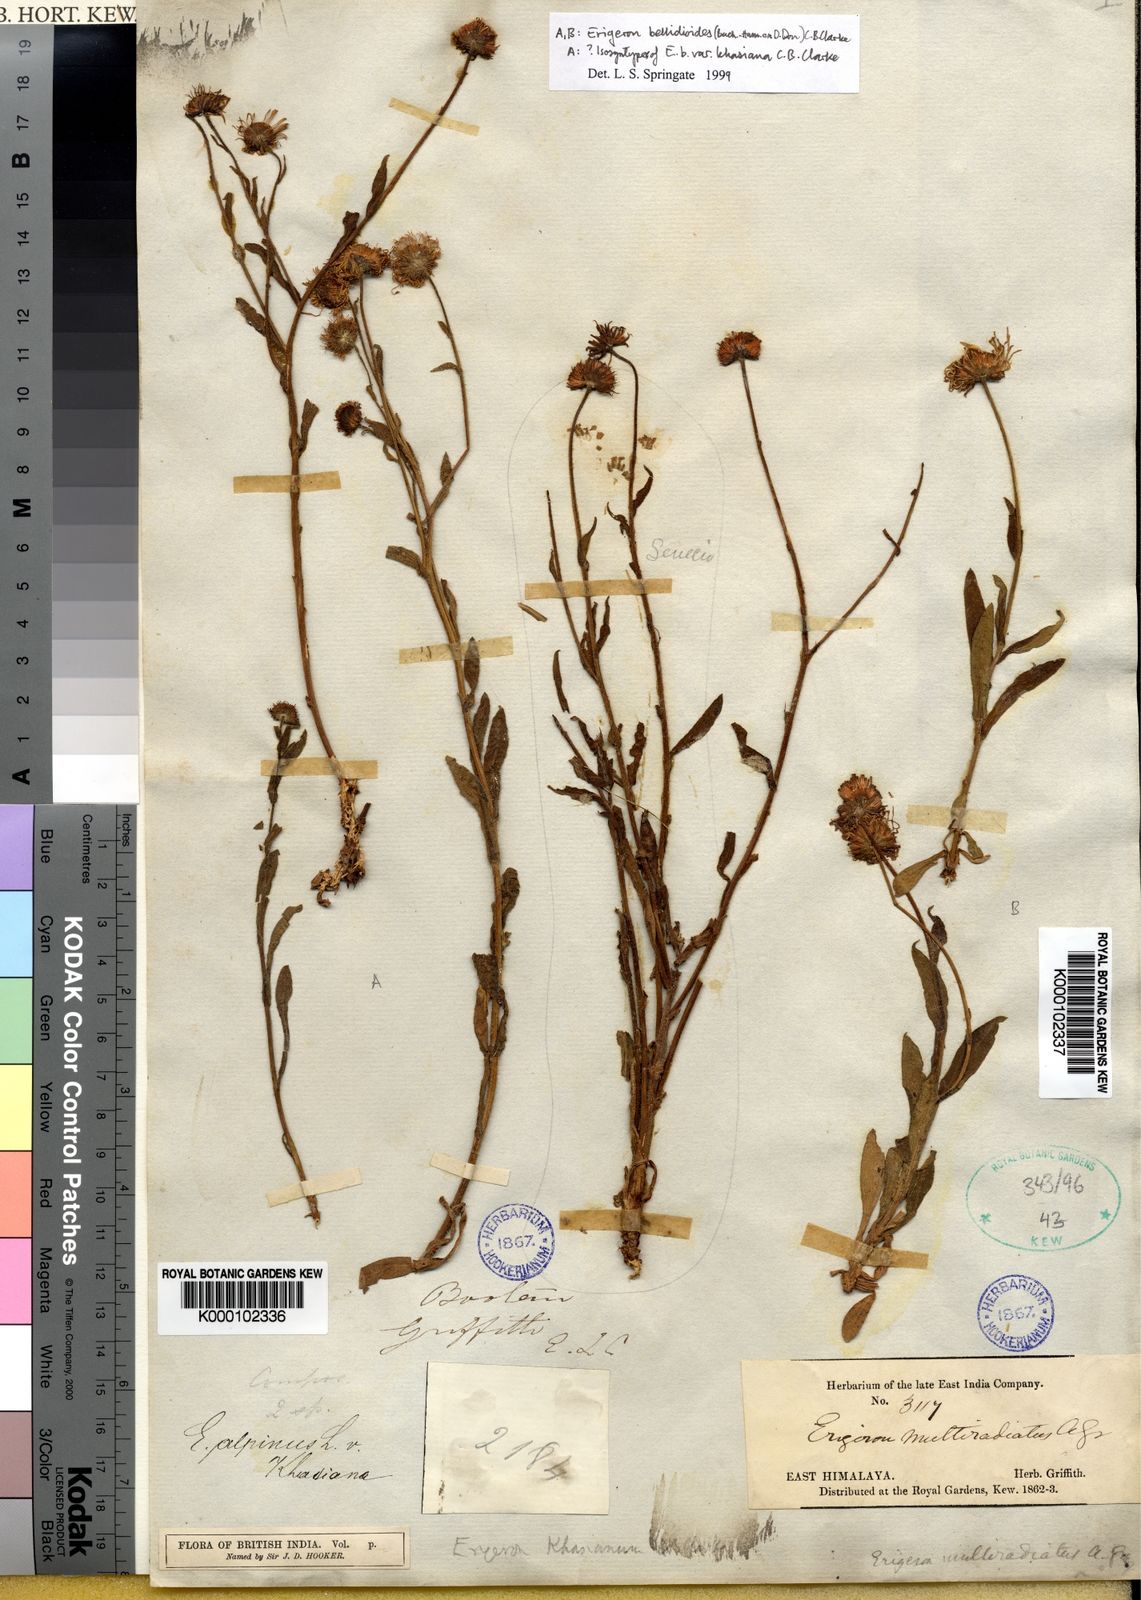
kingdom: Plantae
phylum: Tracheophyta
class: Magnoliopsida
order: Asterales
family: Asteraceae
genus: Erigeron
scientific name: Erigeron alpinus
